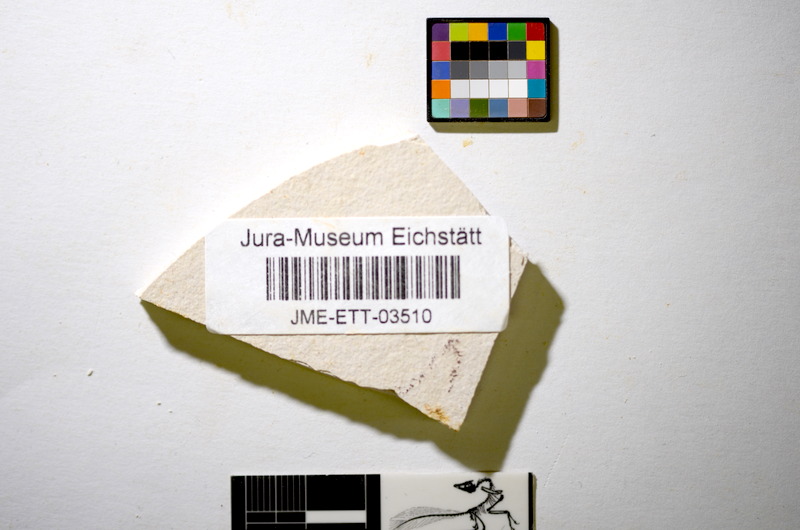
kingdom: Animalia
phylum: Chordata
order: Salmoniformes
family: Orthogonikleithridae
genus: Orthogonikleithrus
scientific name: Orthogonikleithrus hoelli
